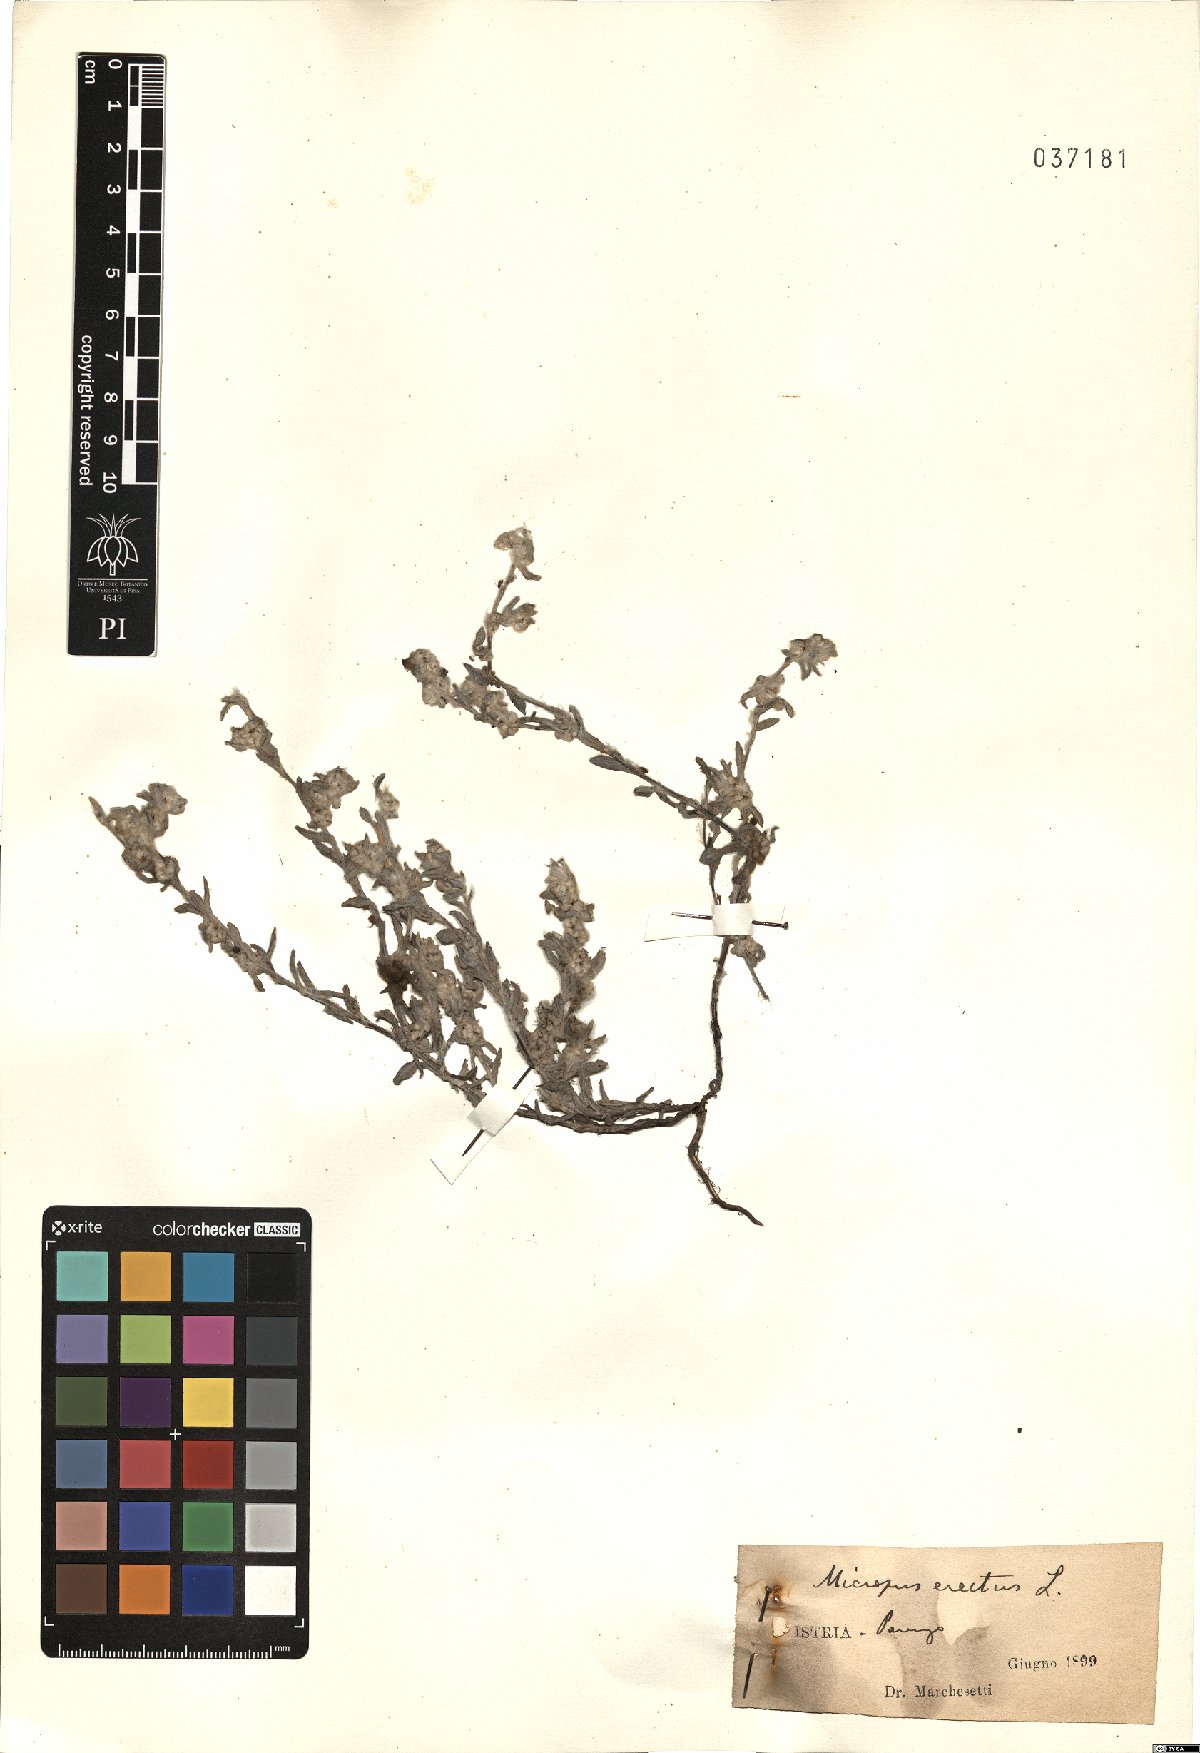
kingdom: Plantae
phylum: Tracheophyta
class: Magnoliopsida
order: Asterales
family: Asteraceae
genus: Bombycilaena
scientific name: Bombycilaena erecta
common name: Micropus
